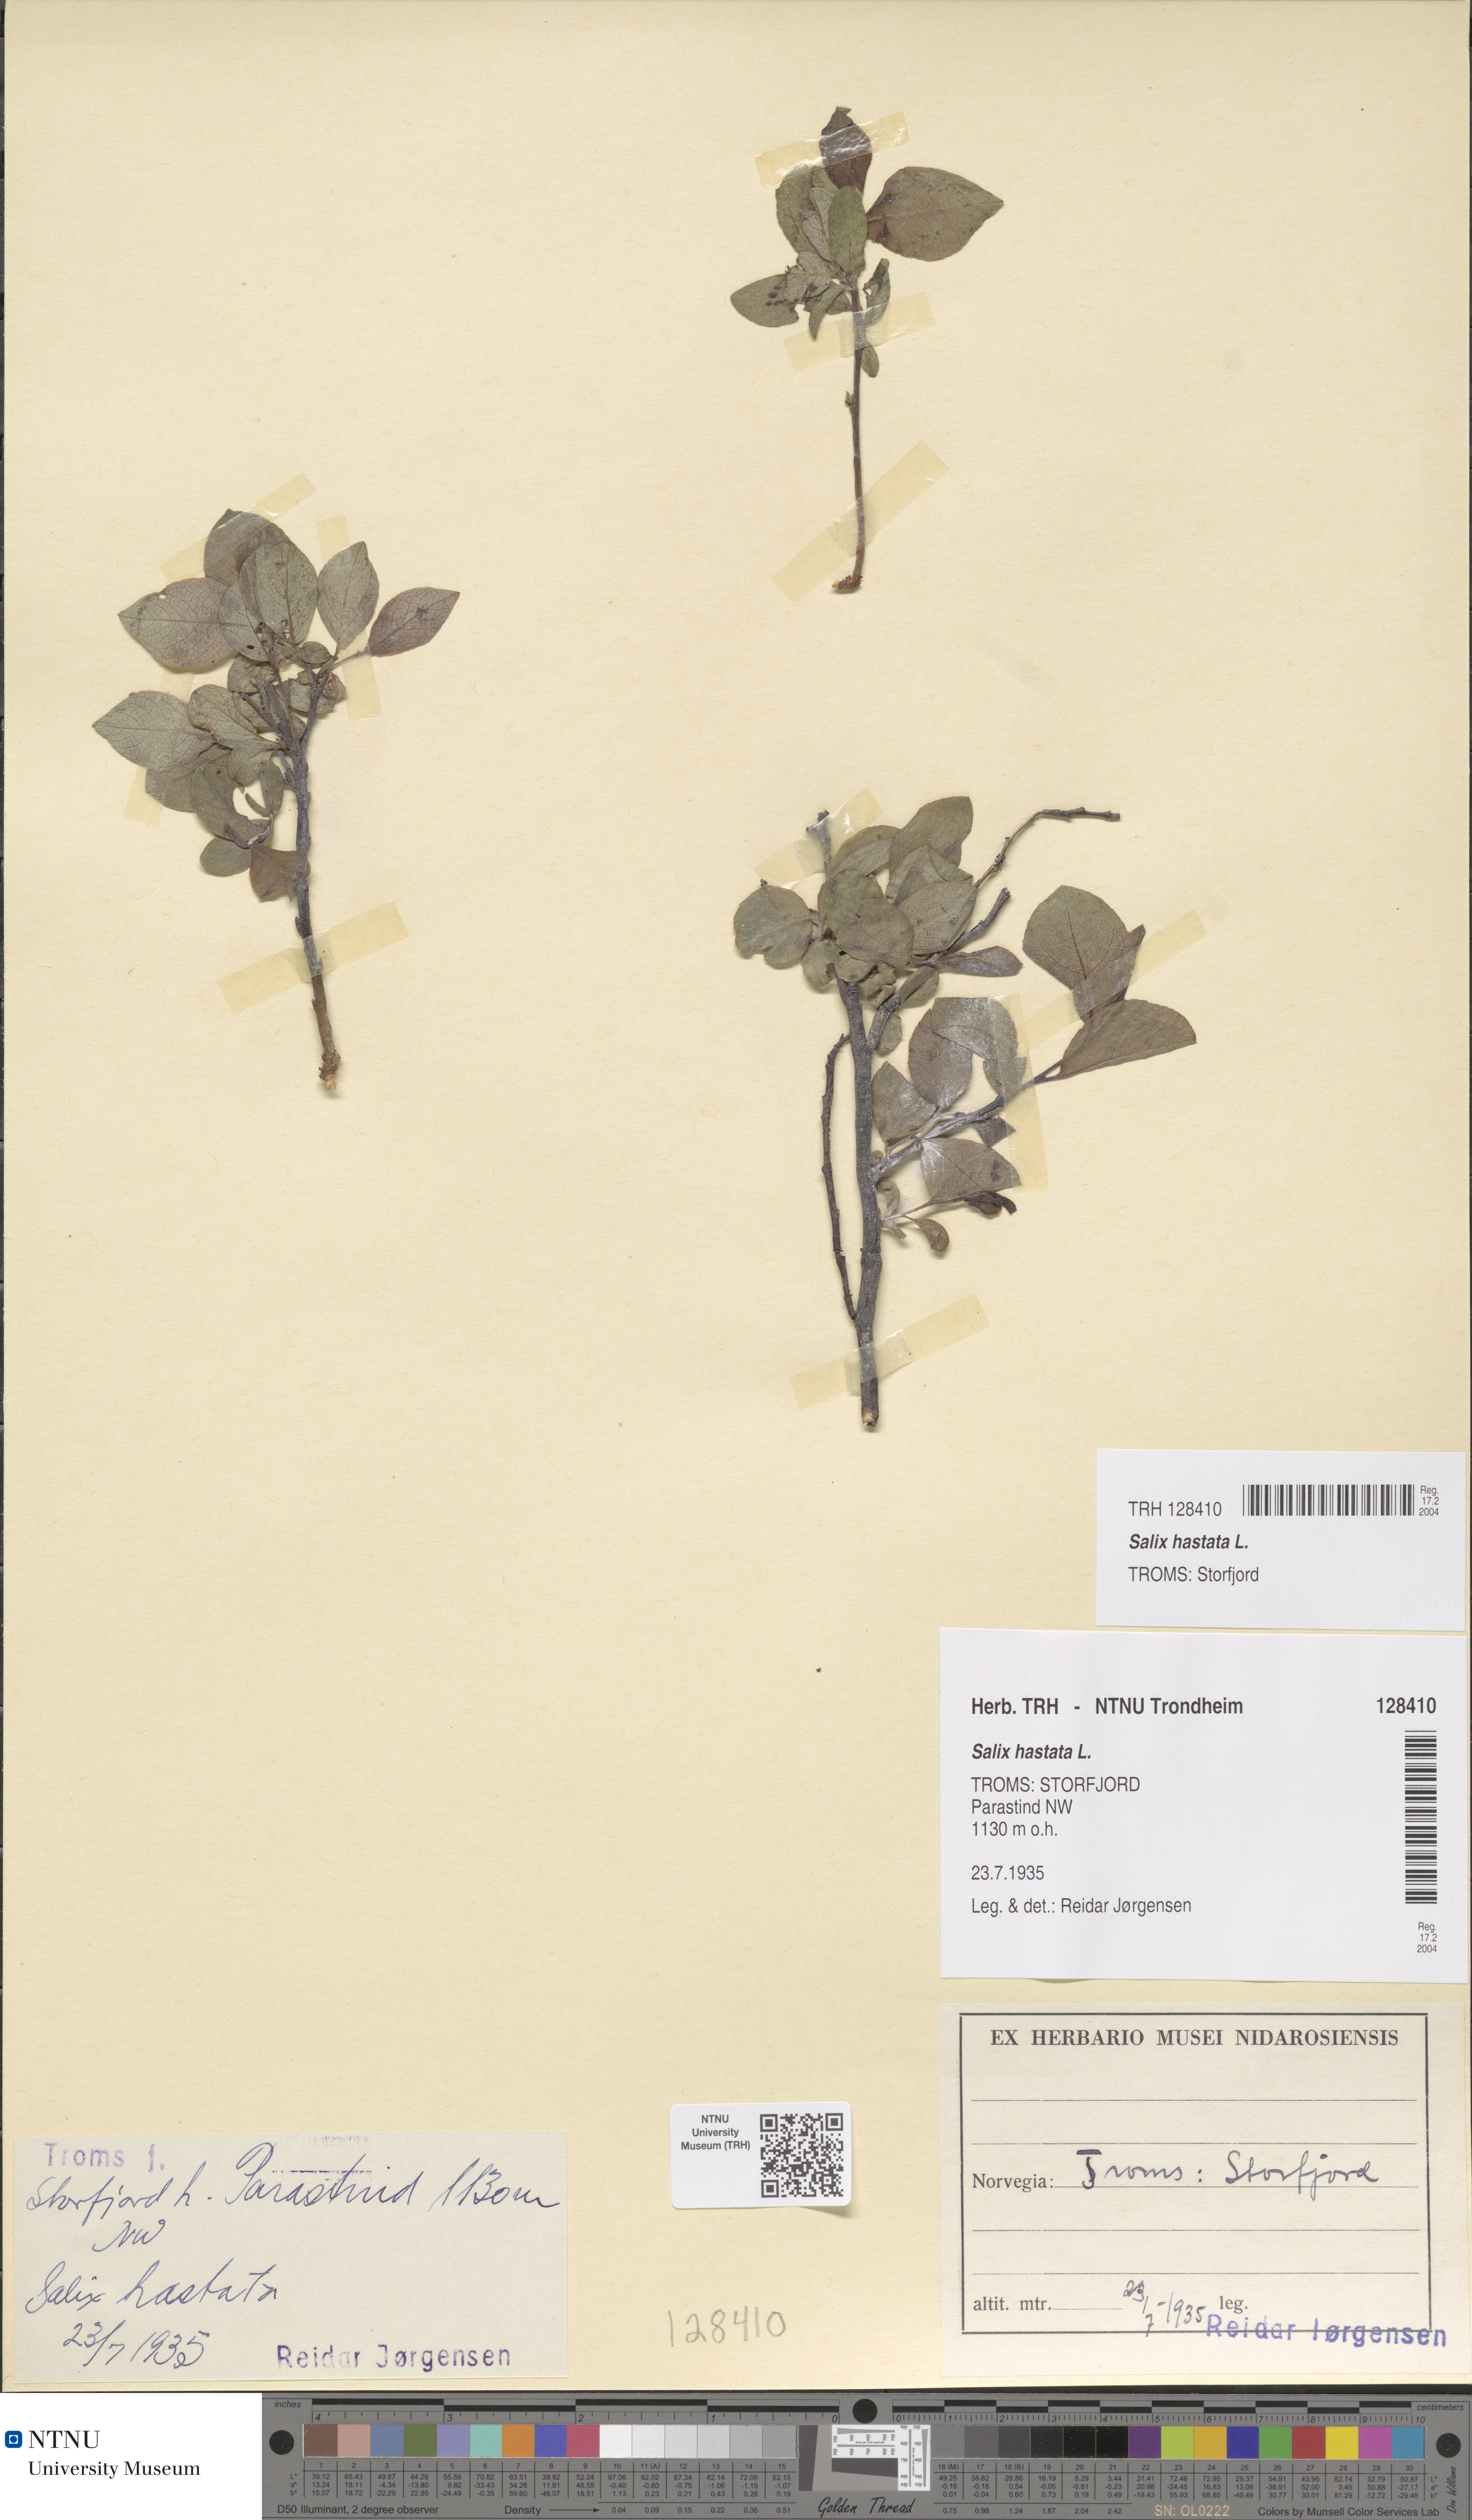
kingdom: Plantae
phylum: Tracheophyta
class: Magnoliopsida
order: Malpighiales
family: Salicaceae
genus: Salix
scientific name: Salix hastata
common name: Halberd willow
